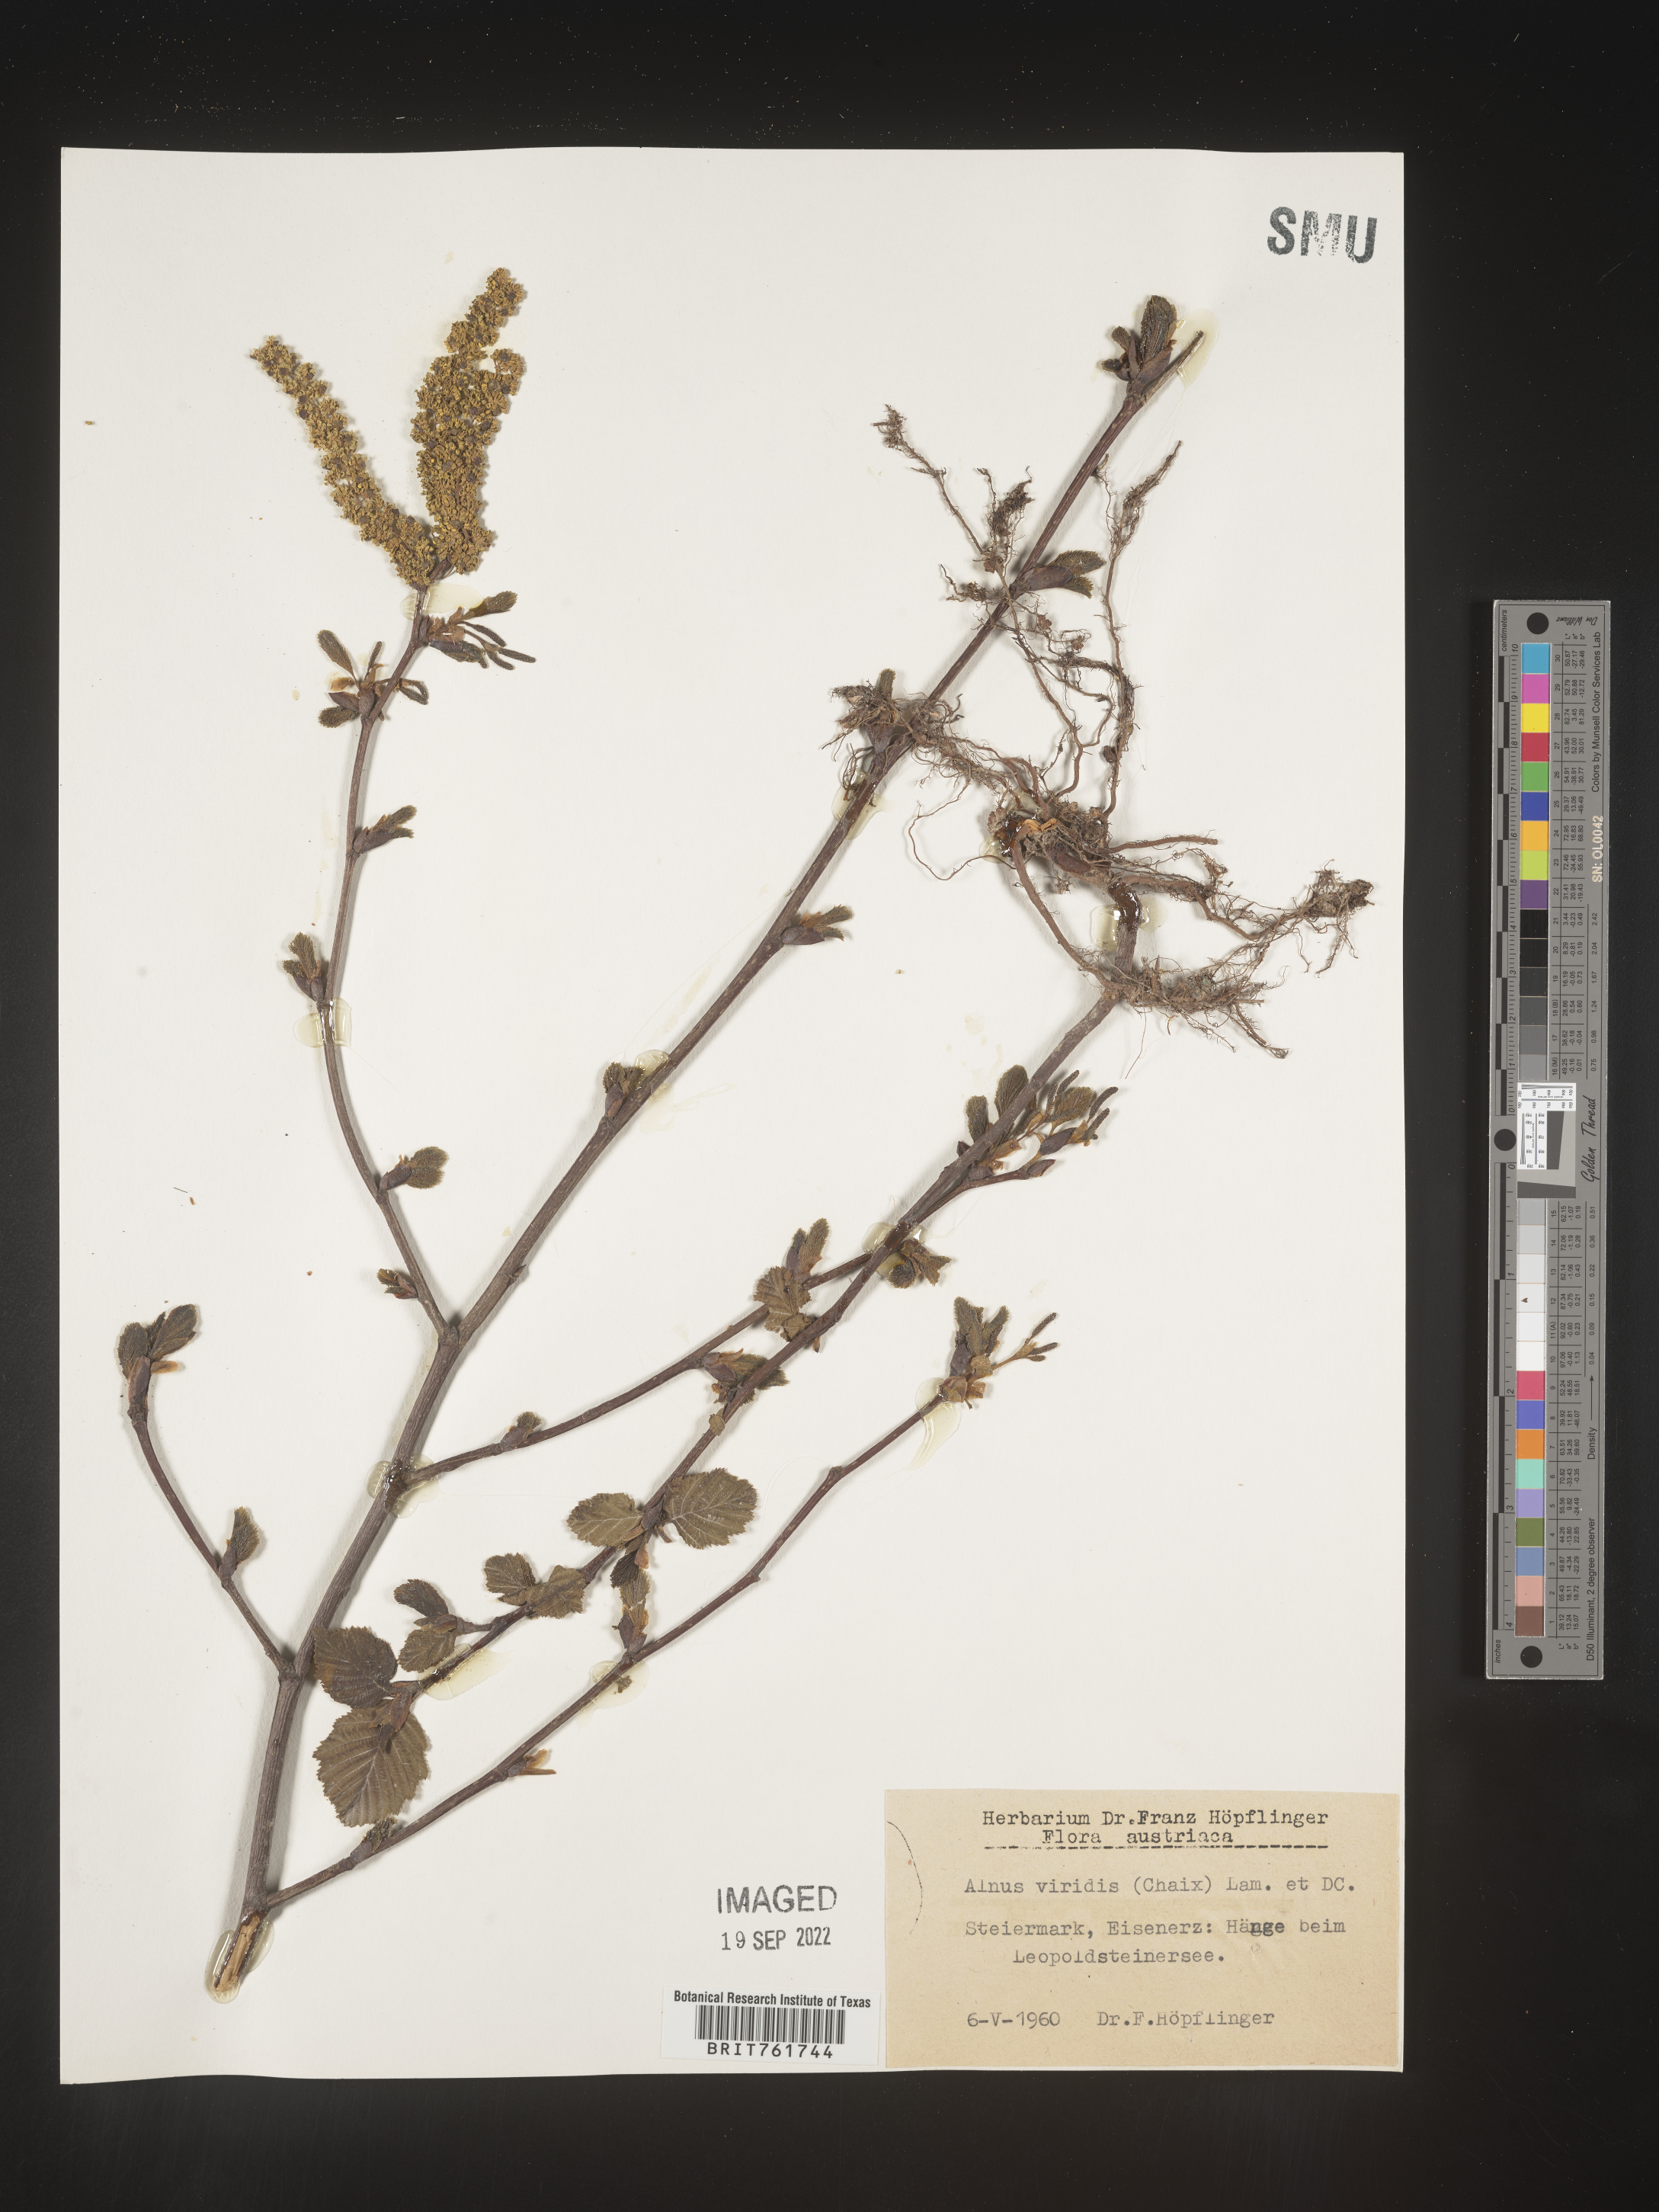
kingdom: Plantae
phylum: Tracheophyta
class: Magnoliopsida
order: Fagales
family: Betulaceae
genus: Alnus
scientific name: Alnus
